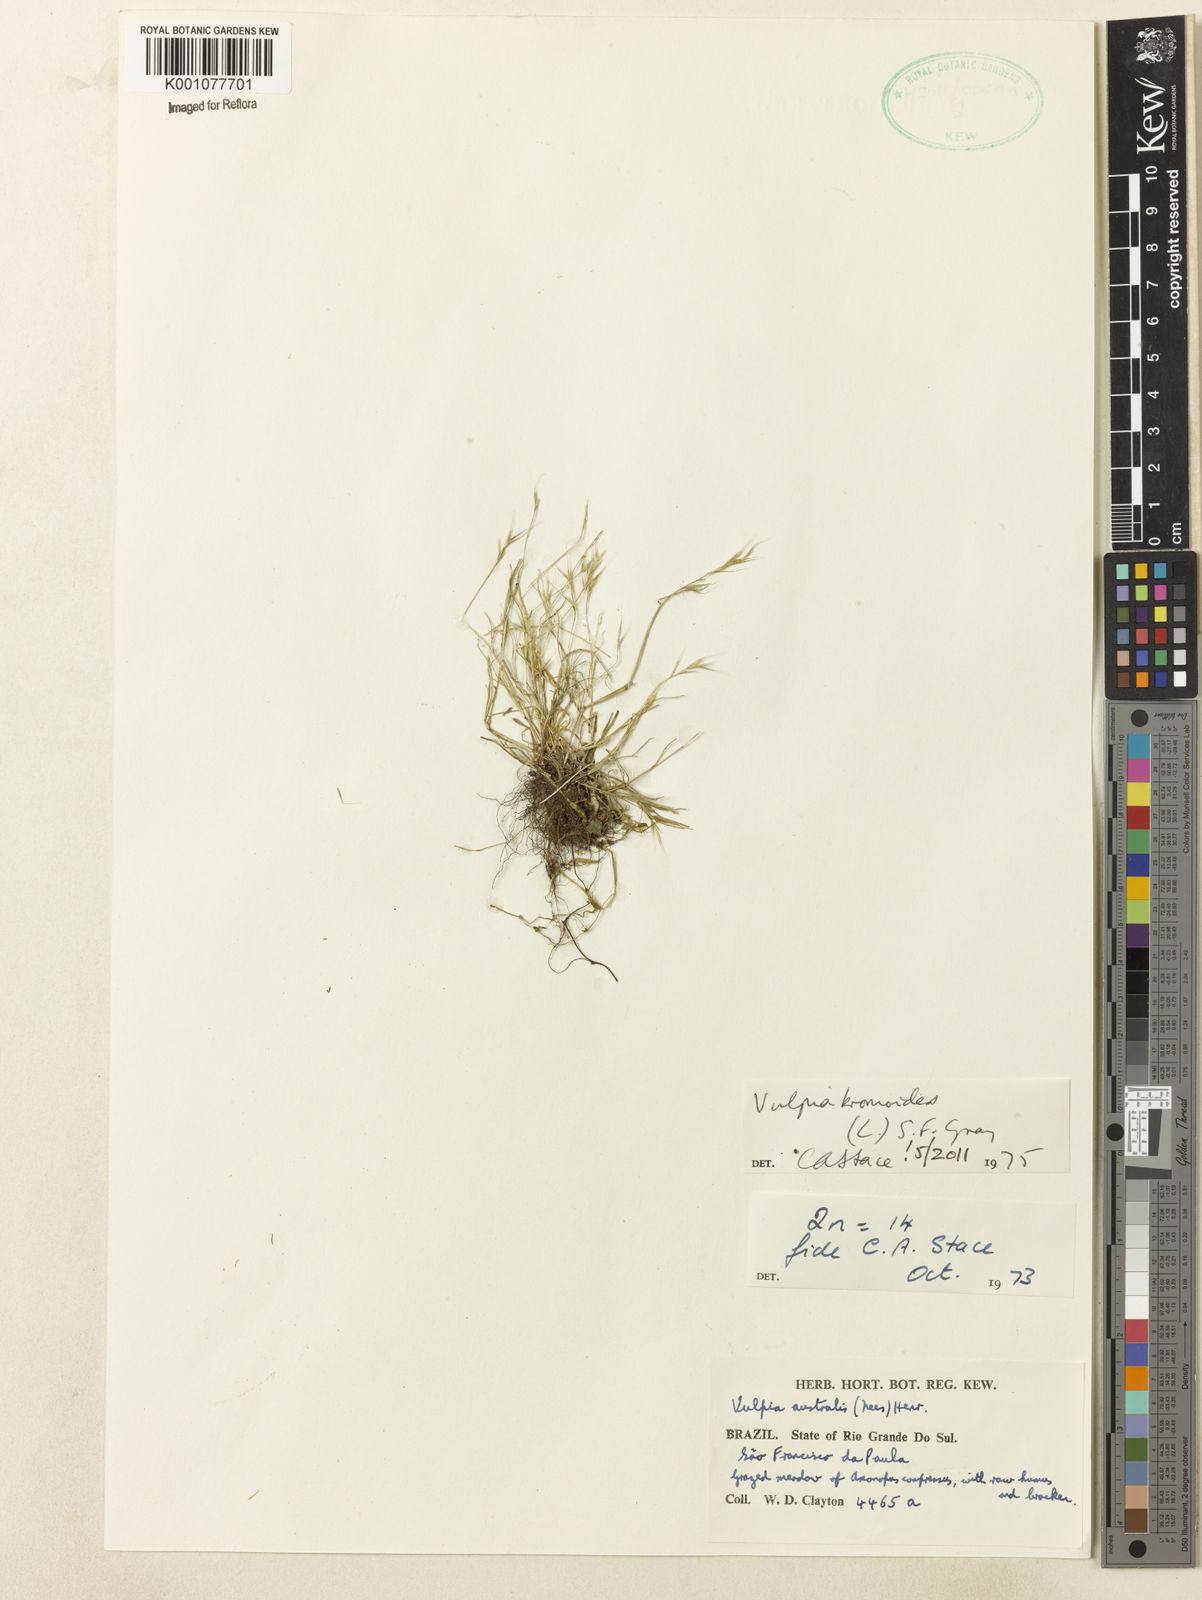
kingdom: Plantae
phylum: Tracheophyta
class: Liliopsida
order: Poales
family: Poaceae
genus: Festuca
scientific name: Festuca bromoides
